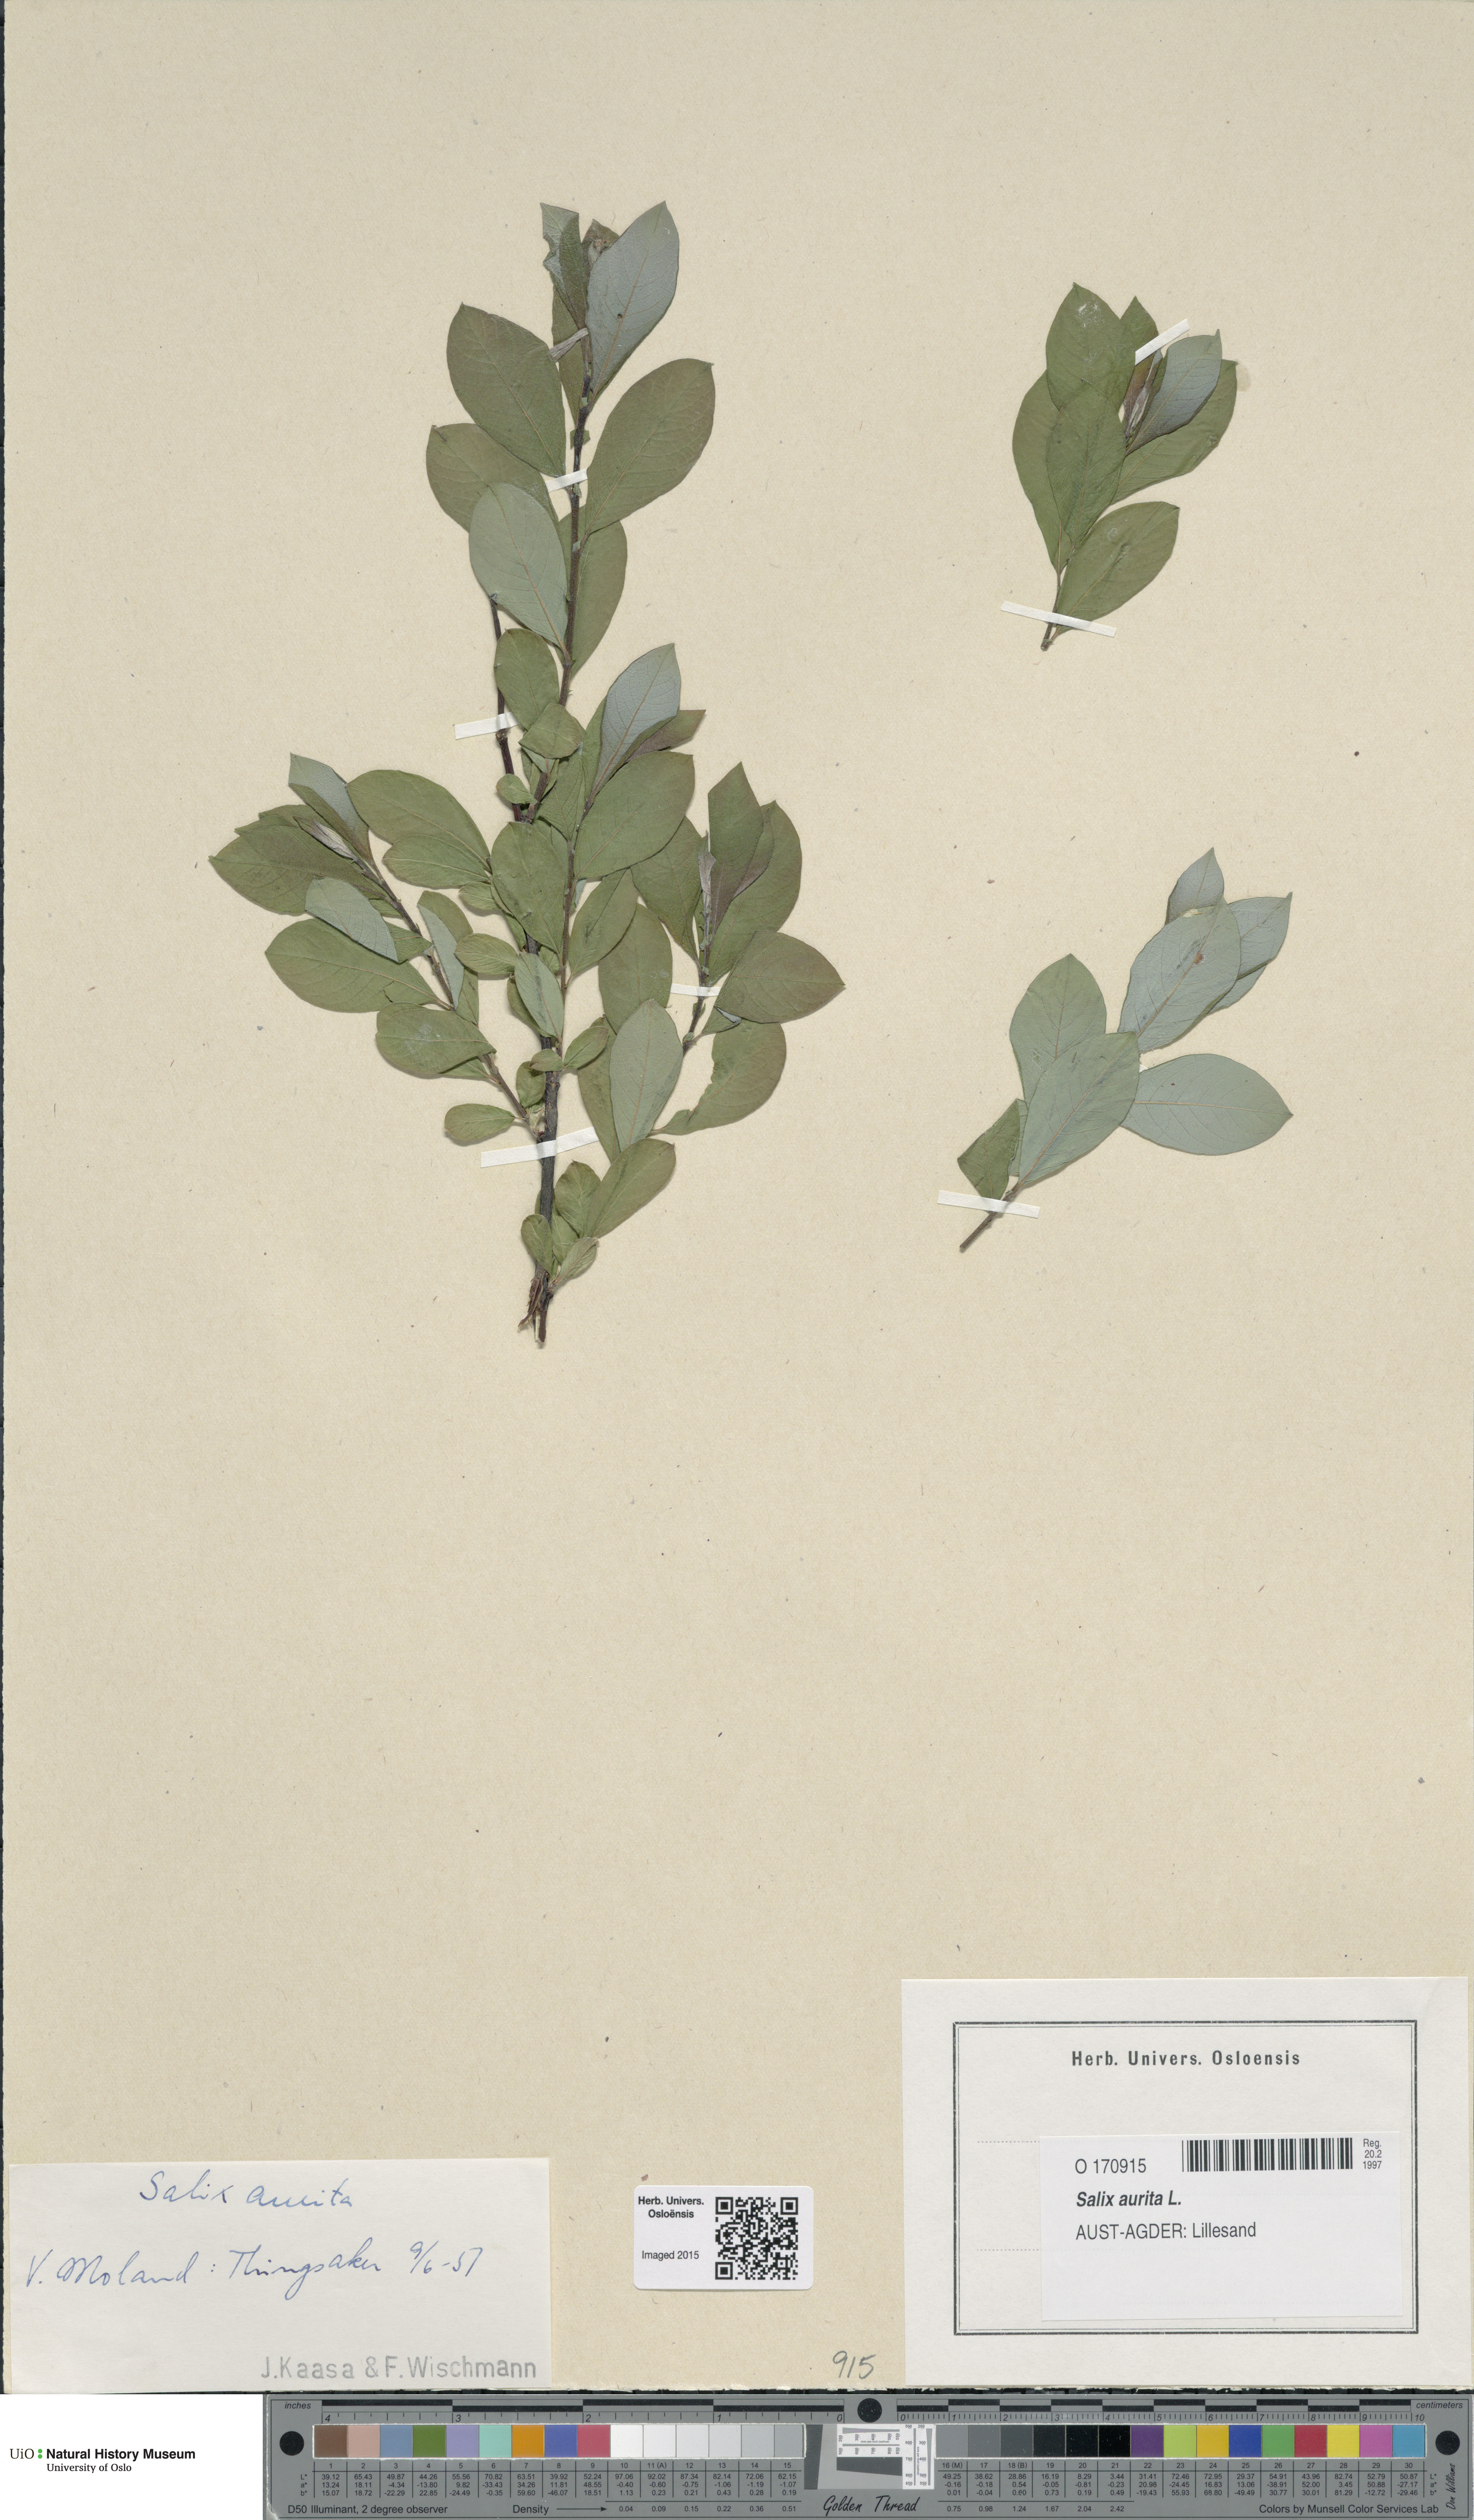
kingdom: Plantae
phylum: Tracheophyta
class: Magnoliopsida
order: Malpighiales
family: Salicaceae
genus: Salix
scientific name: Salix aurita
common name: Eared willow
